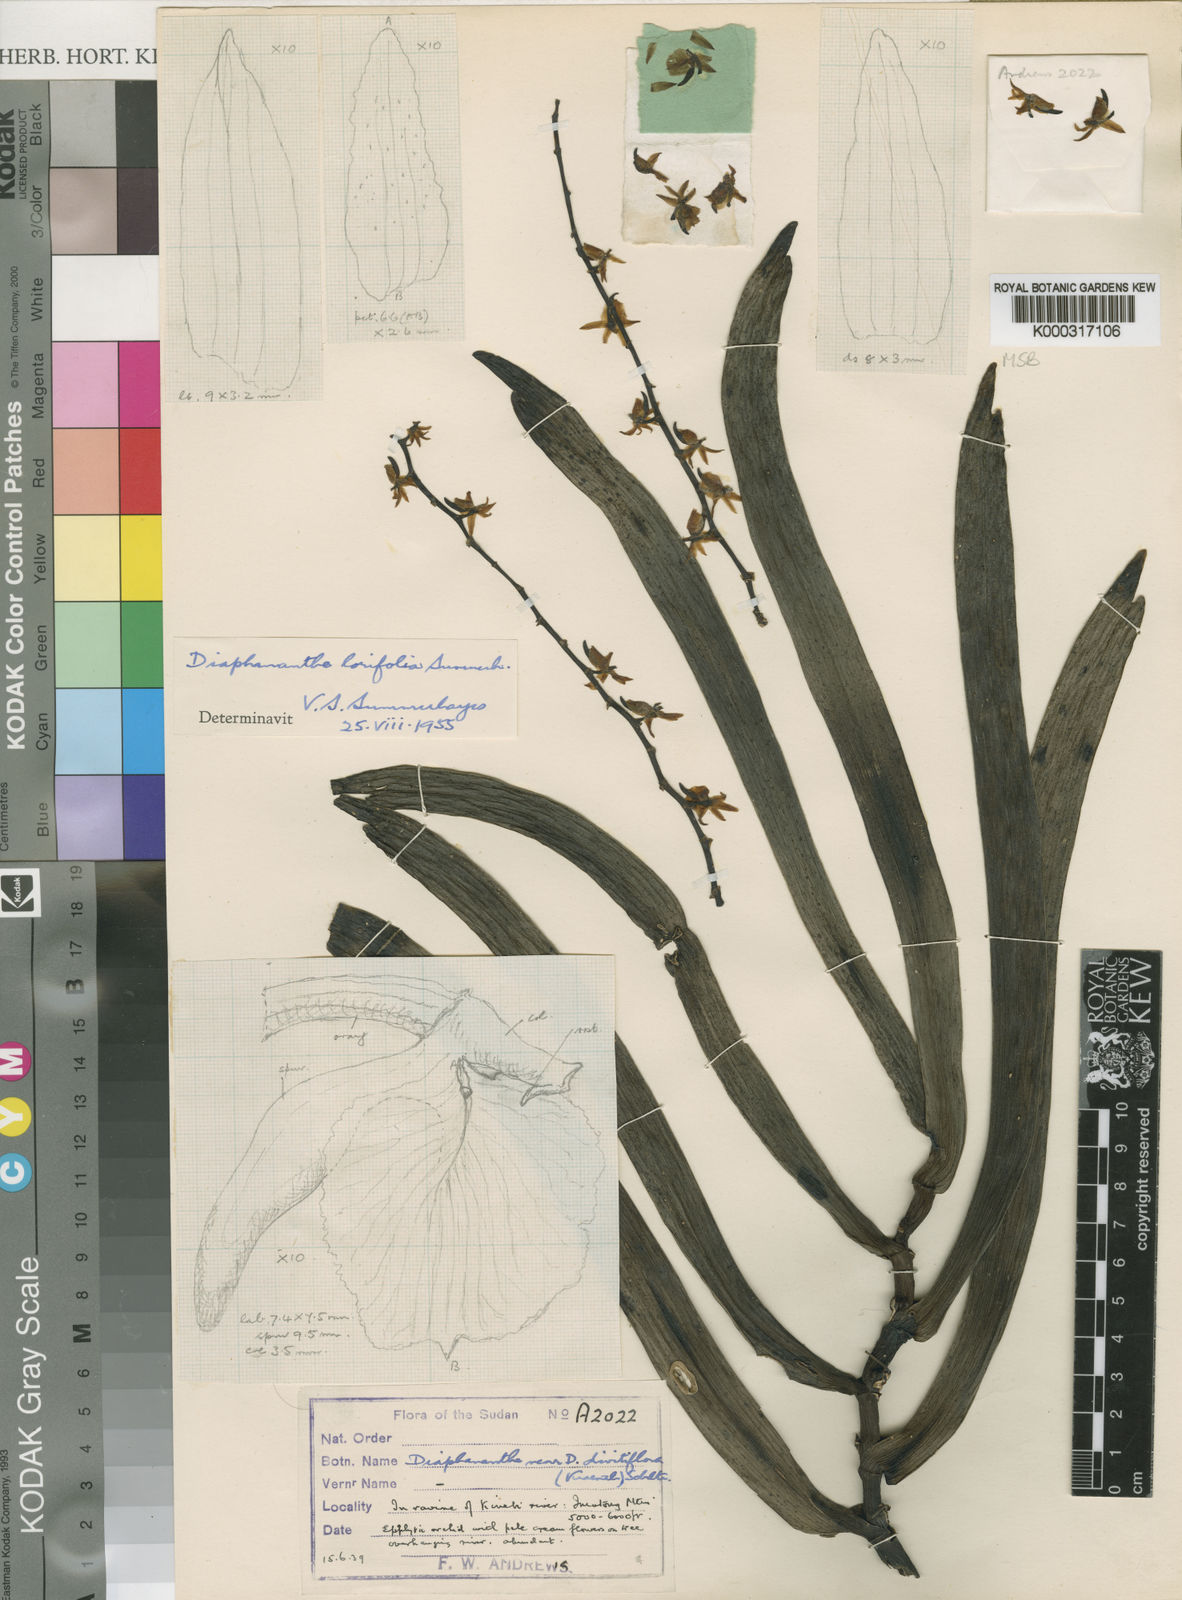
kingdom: Plantae
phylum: Tracheophyta
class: Liliopsida
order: Asparagales
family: Orchidaceae
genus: Diaphananthe
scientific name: Diaphananthe lorifolia
